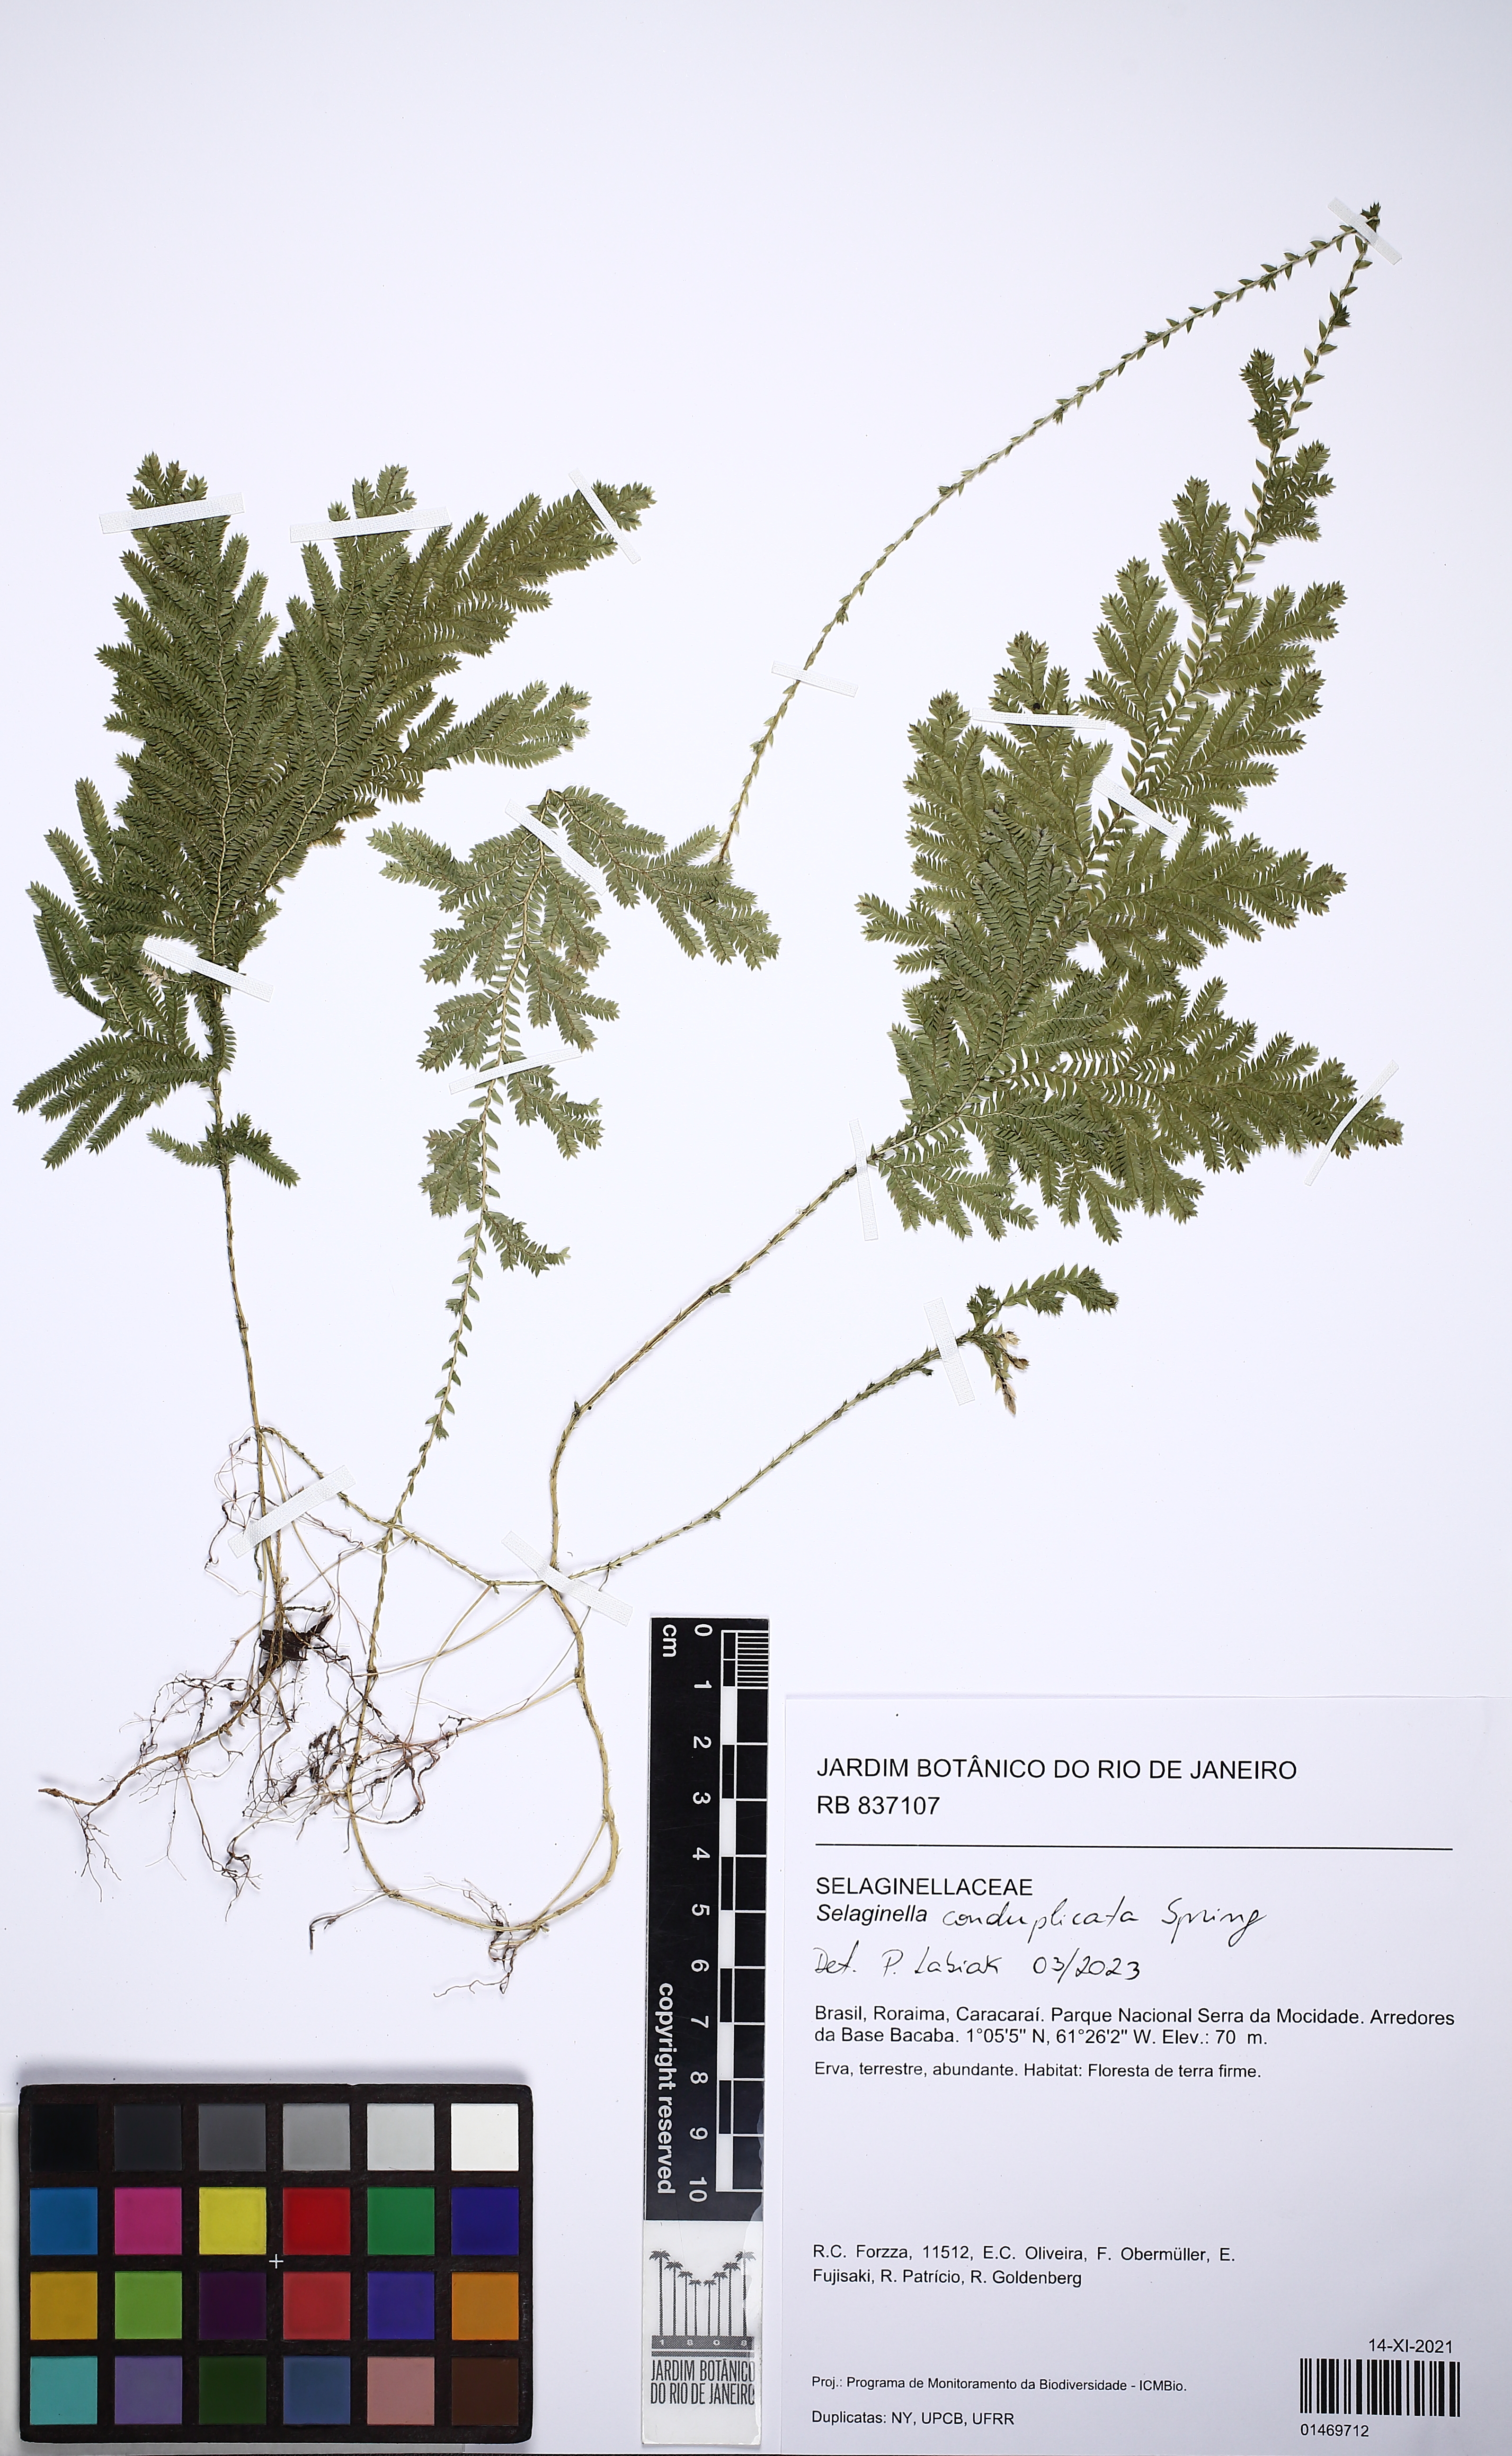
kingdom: Plantae
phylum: Tracheophyta
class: Lycopodiopsida
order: Selaginellales
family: Selaginellaceae
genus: Selaginella
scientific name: Selaginella conduplicata
